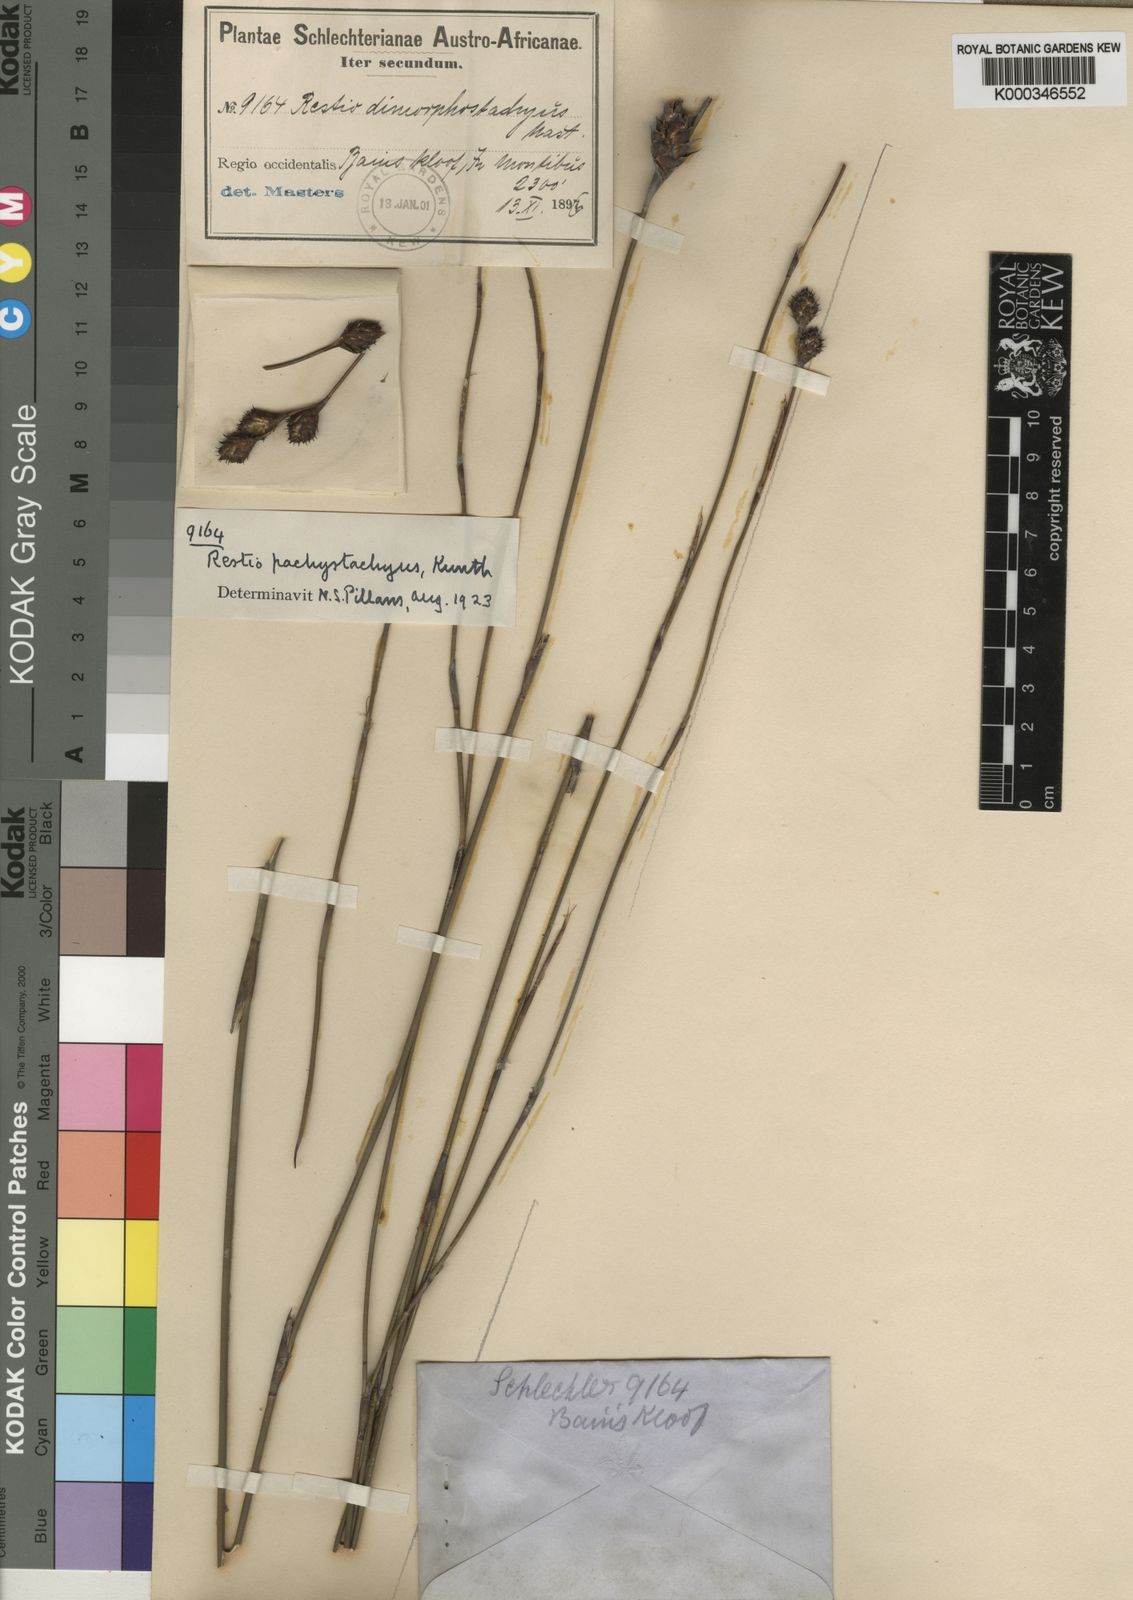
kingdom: Plantae
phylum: Tracheophyta
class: Liliopsida
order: Poales
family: Restionaceae
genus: Restio
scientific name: Restio pachystachyus
